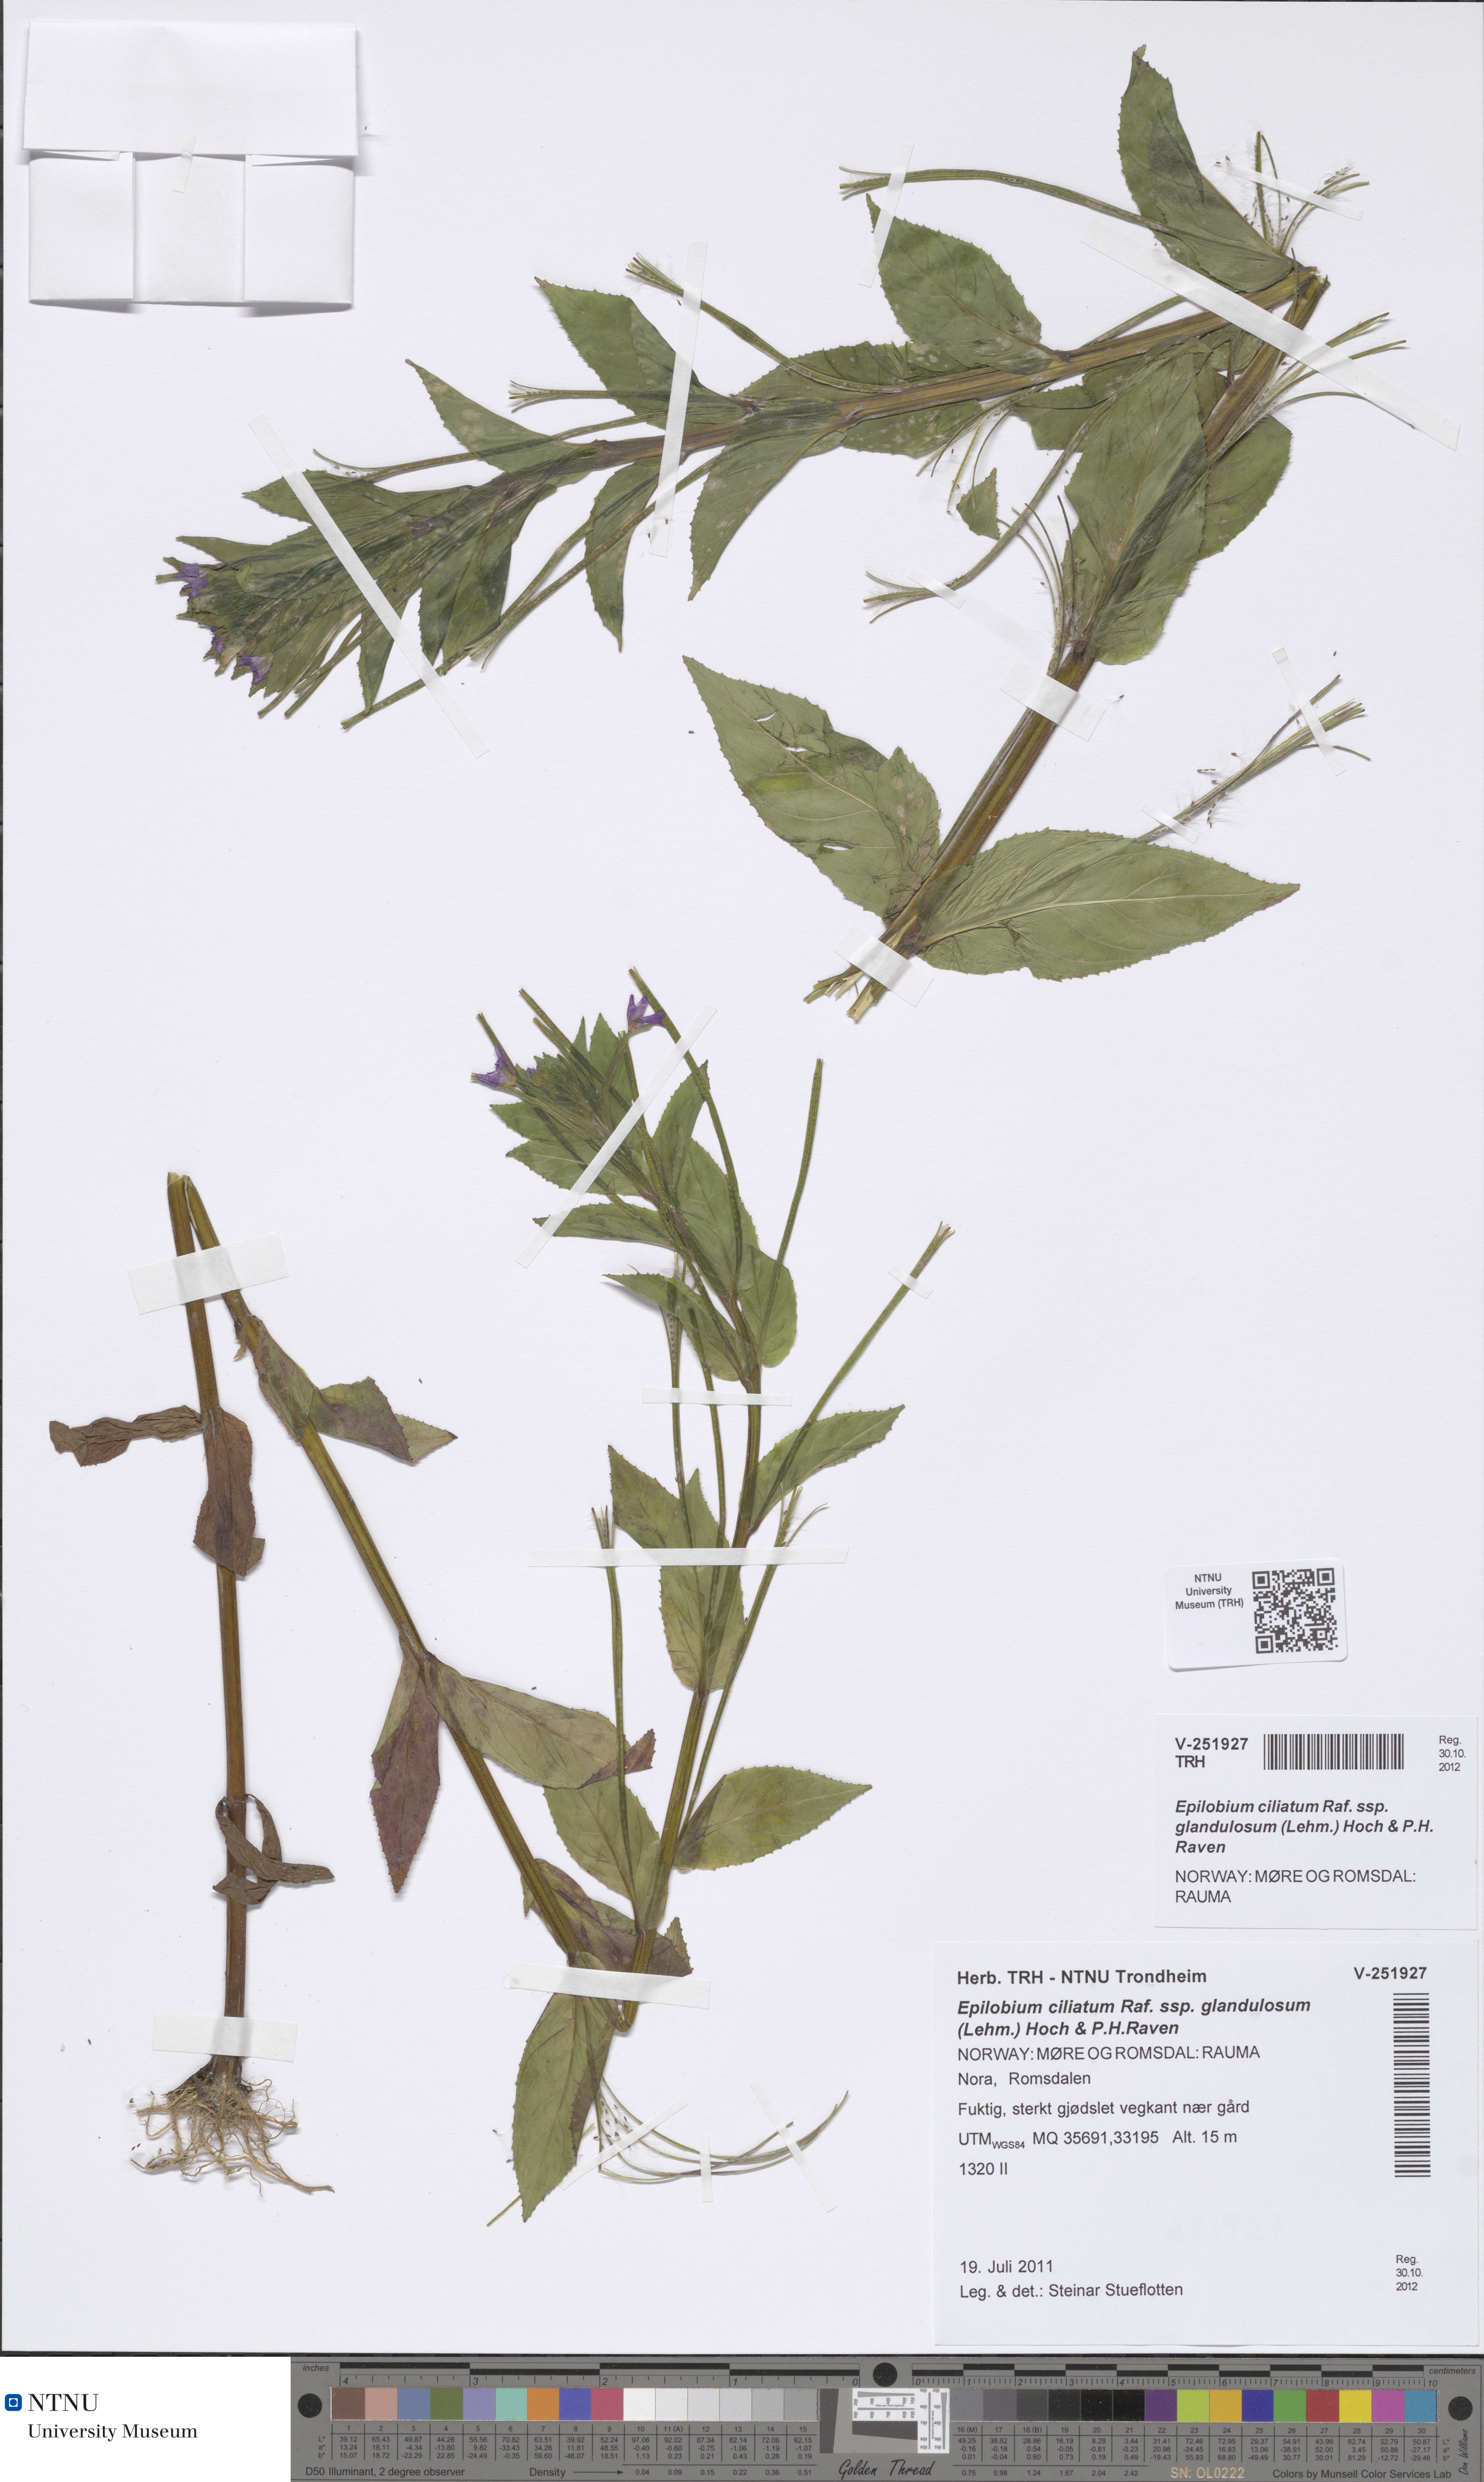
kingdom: Plantae
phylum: Tracheophyta
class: Magnoliopsida
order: Myrtales
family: Onagraceae
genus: Epilobium
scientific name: Epilobium ciliatum
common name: American willowherb
